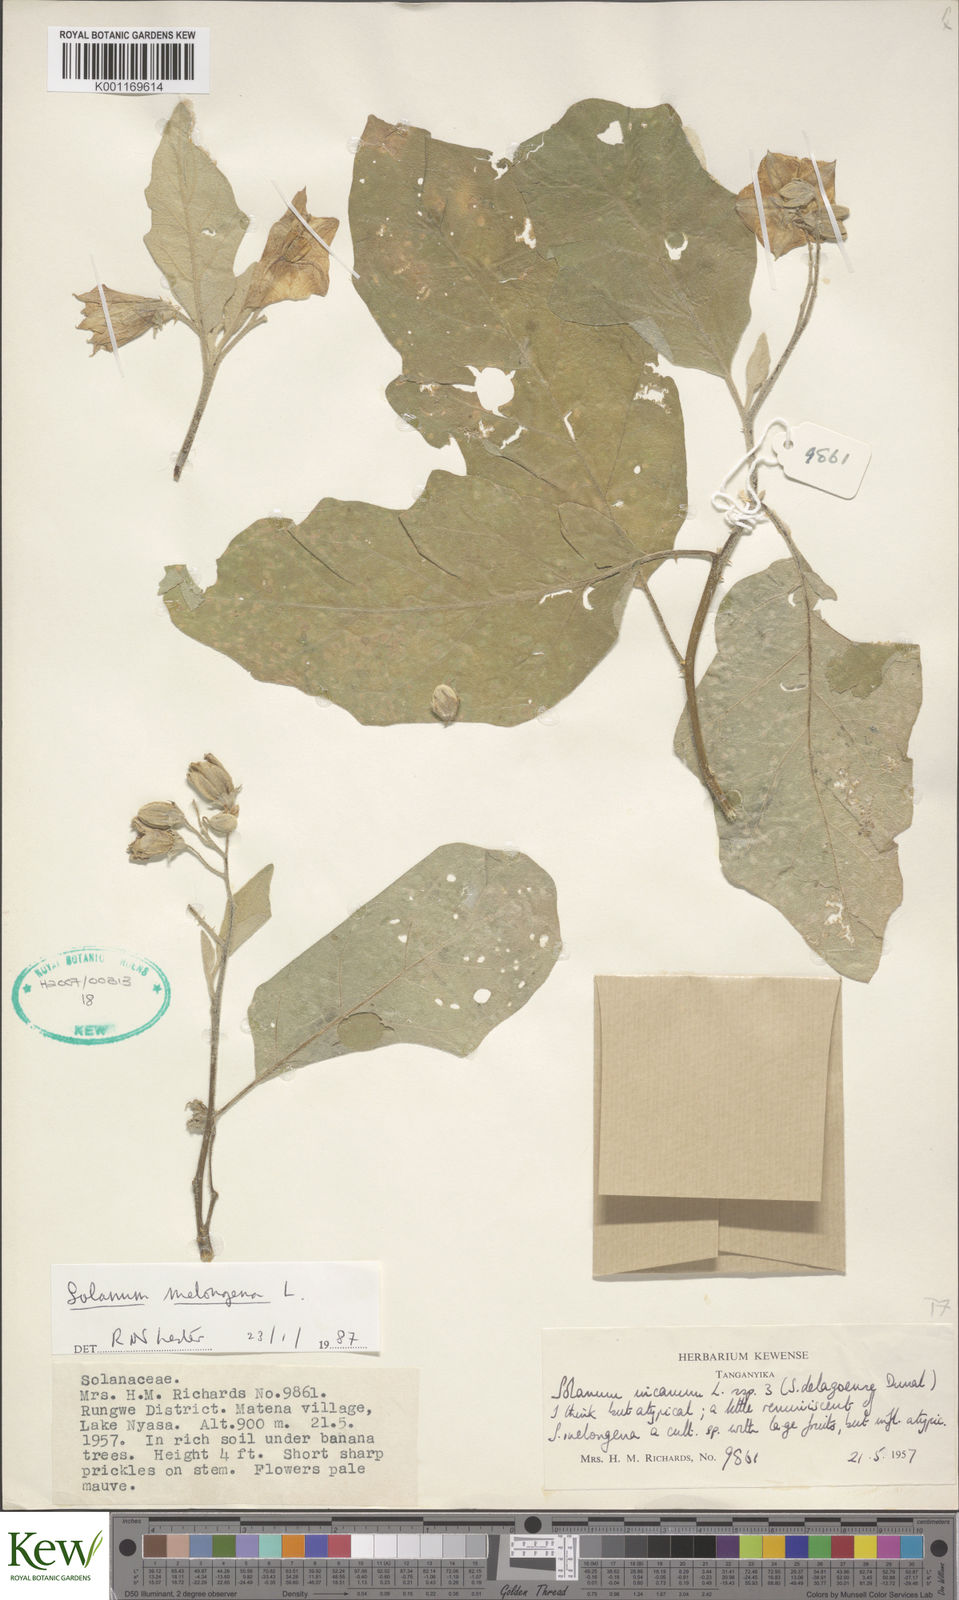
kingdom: Plantae
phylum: Tracheophyta
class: Magnoliopsida
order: Solanales
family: Solanaceae
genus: Solanum
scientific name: Solanum melongena
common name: Eggplant
